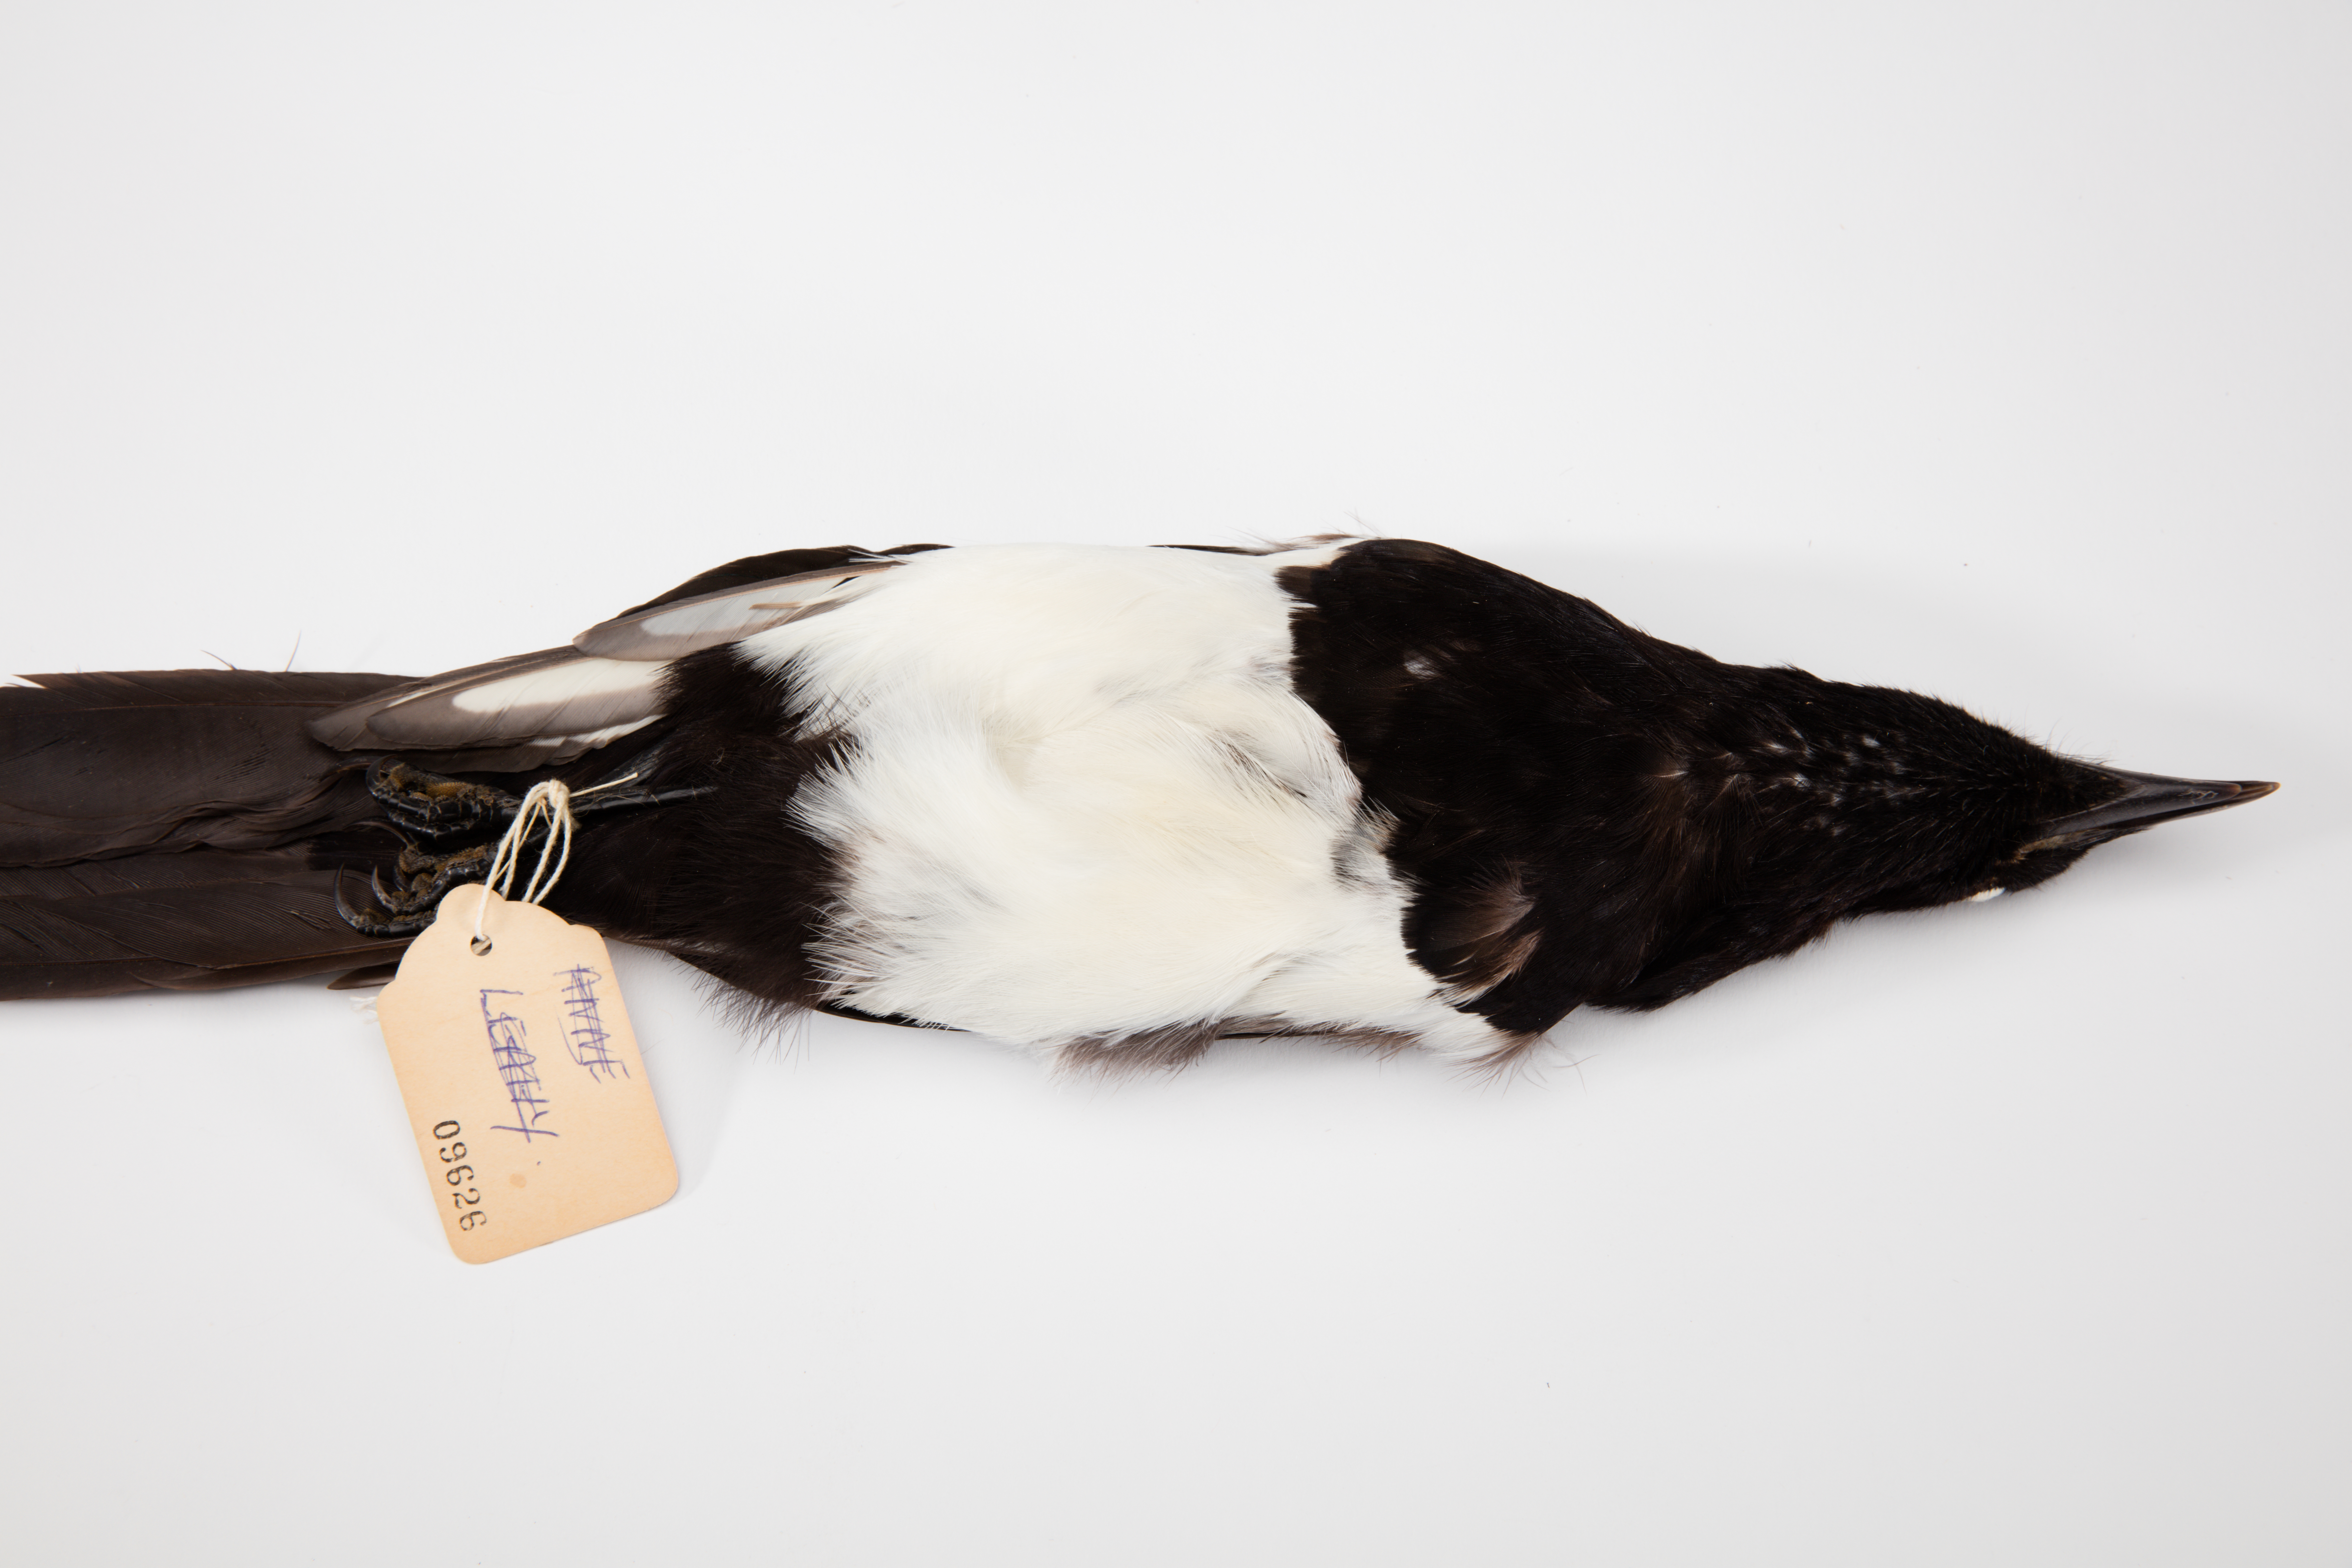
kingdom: Animalia
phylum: Chordata
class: Aves
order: Passeriformes
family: Corvidae
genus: Pica
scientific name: Pica pica
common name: Eurasian magpie
